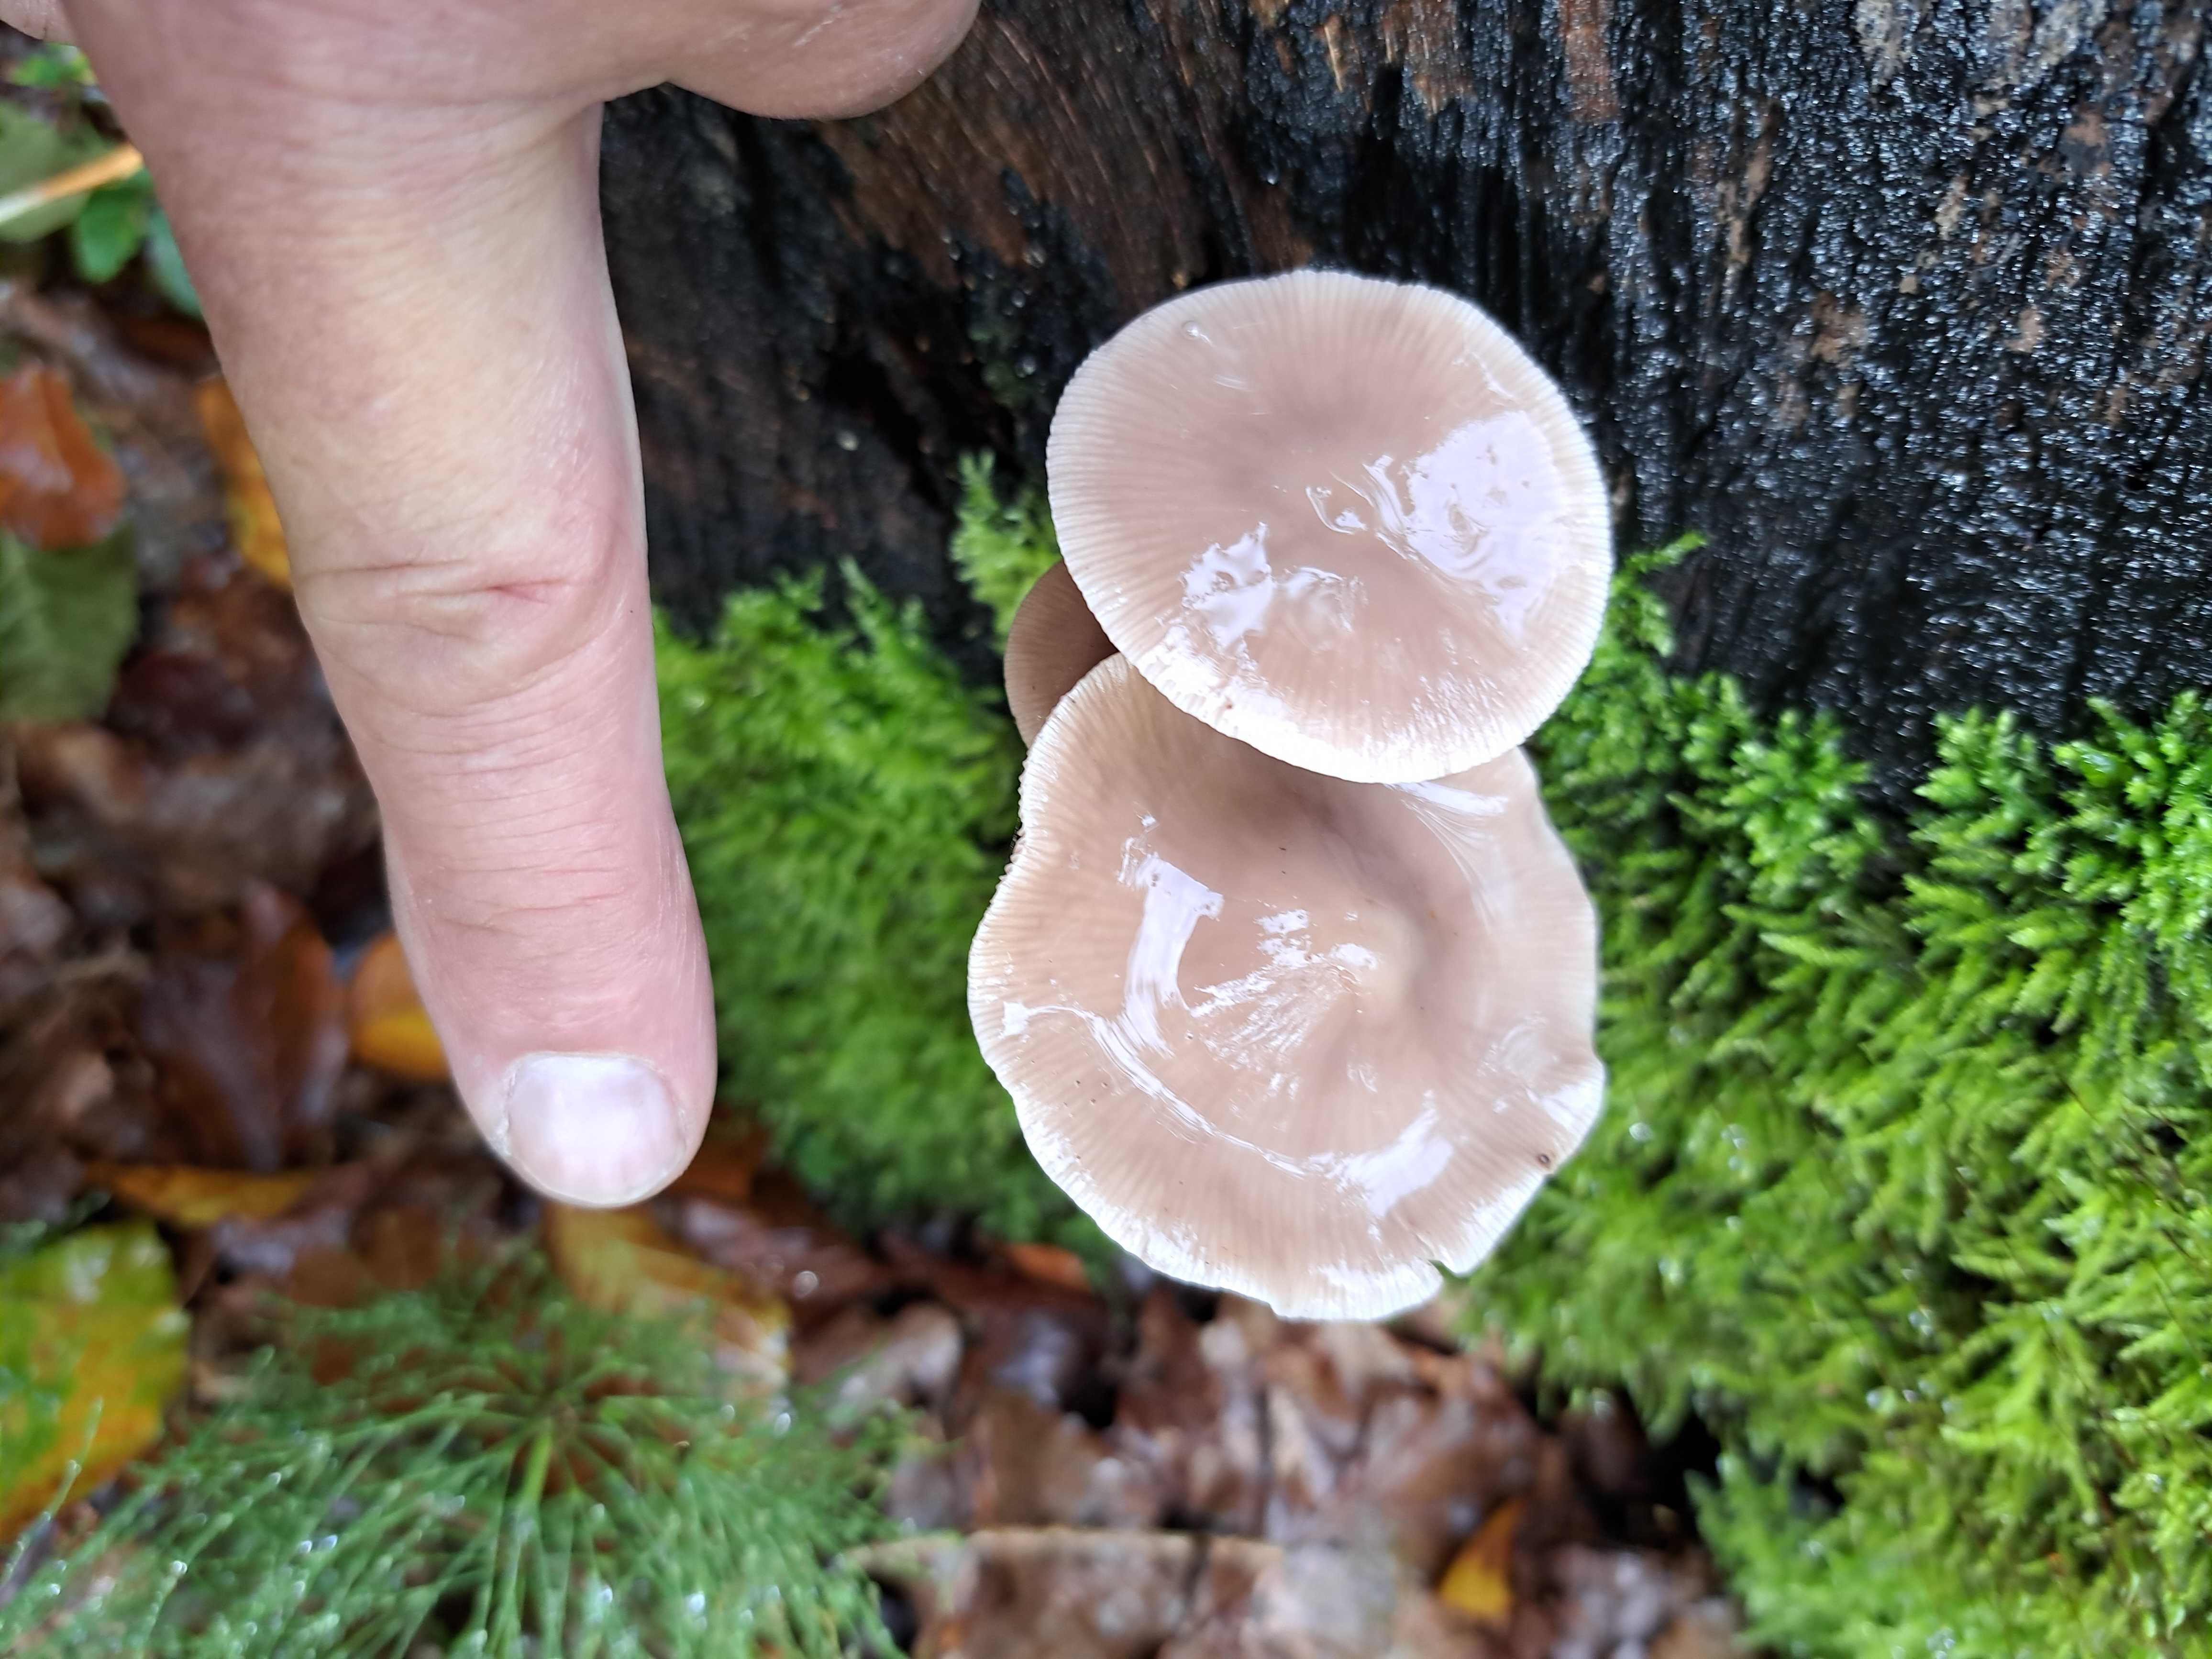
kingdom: Fungi
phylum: Basidiomycota
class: Agaricomycetes
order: Agaricales
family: Omphalotaceae
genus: Mycetinis
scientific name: Mycetinis alliaceus
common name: stor løghat
